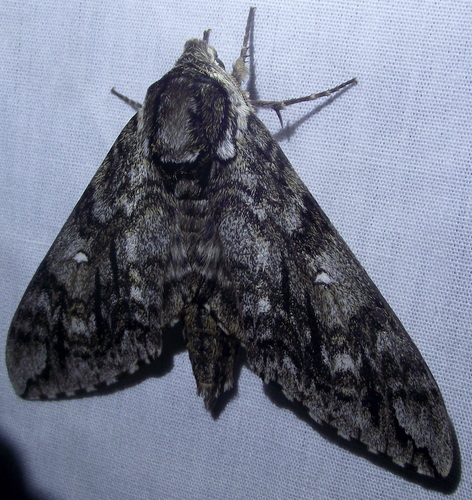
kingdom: Animalia
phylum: Arthropoda
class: Insecta
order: Lepidoptera
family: Sphingidae
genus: Ceratomia
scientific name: Ceratomia undulosa
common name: Waved sphinx
